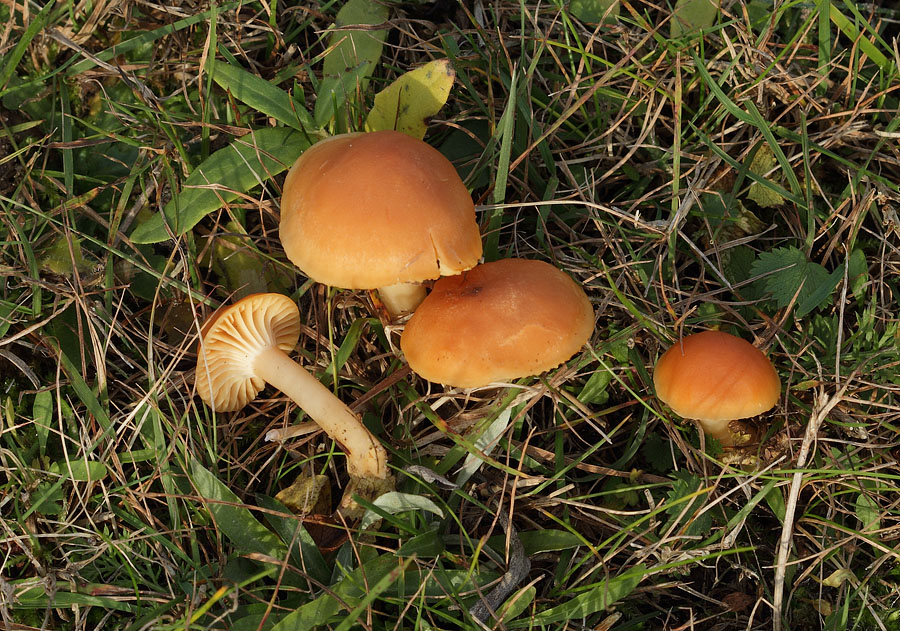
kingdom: Fungi
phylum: Basidiomycota
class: Agaricomycetes
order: Agaricales
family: Hygrophoraceae
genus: Cuphophyllus
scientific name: Cuphophyllus pratensis
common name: eng-vokshat
